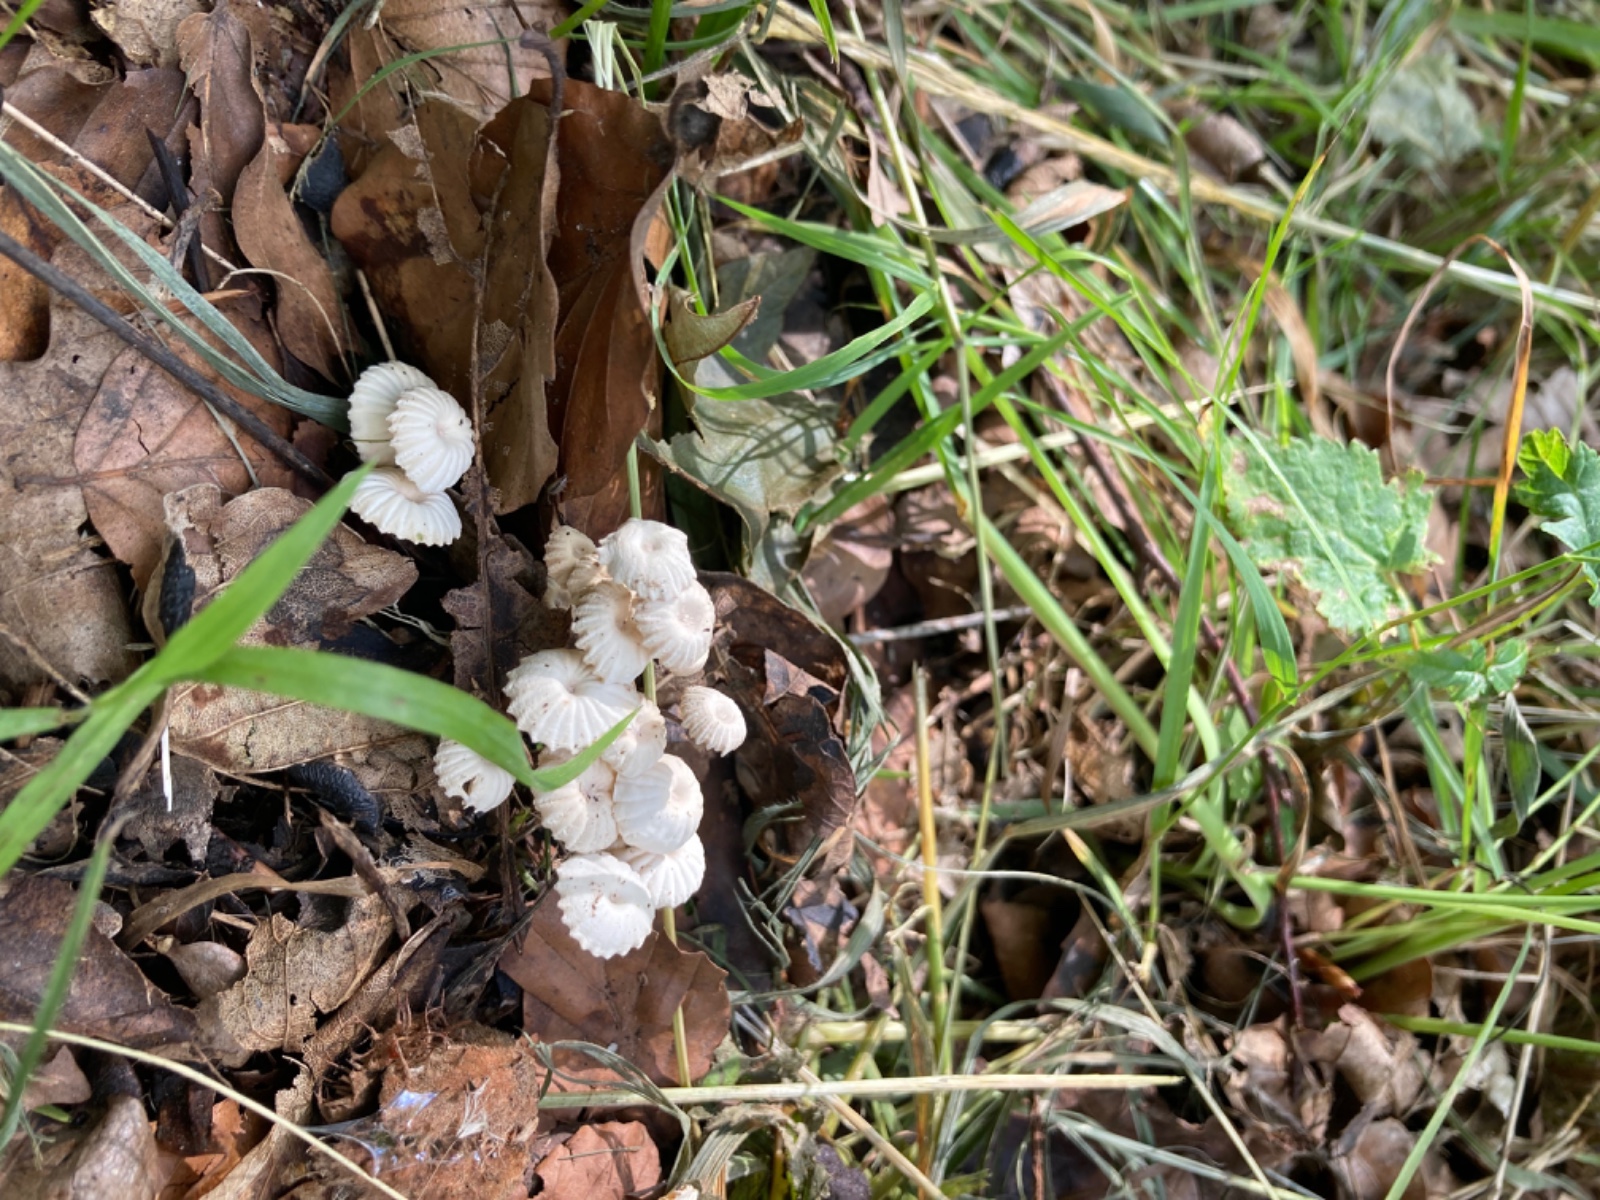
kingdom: Fungi
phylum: Basidiomycota
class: Agaricomycetes
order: Agaricales
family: Marasmiaceae
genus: Marasmius
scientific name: Marasmius rotula
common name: hjul-bruskhat
